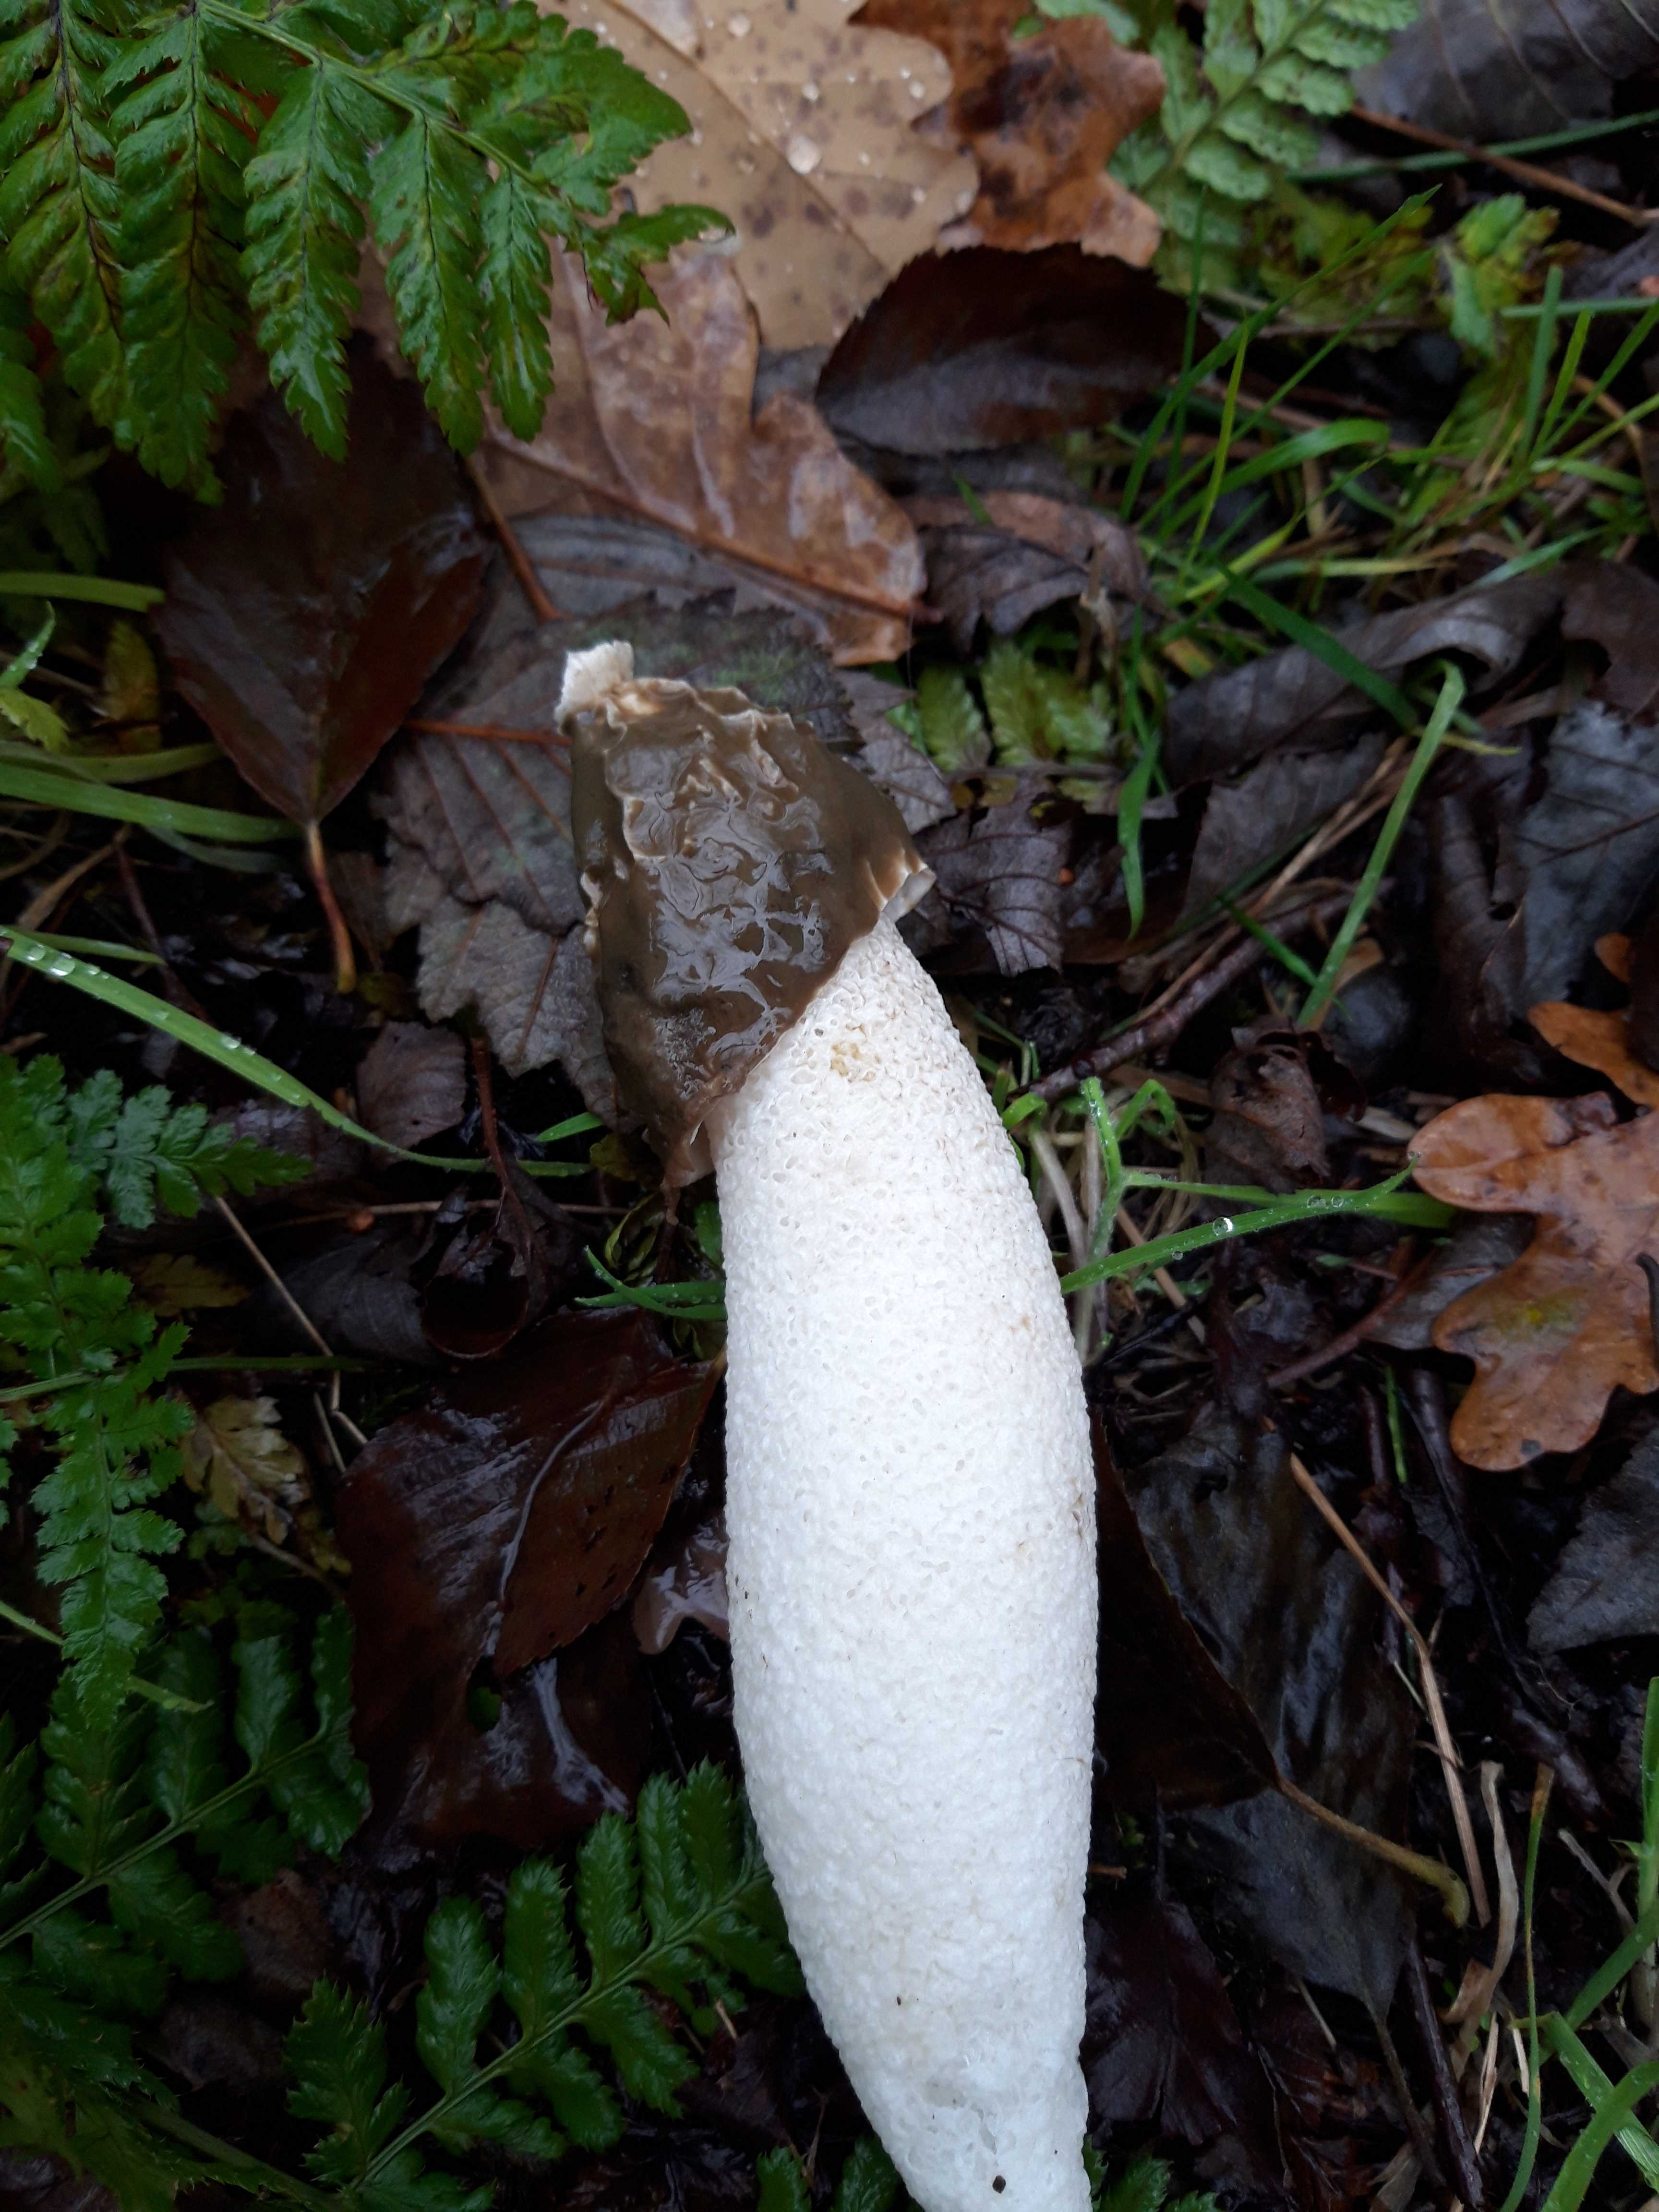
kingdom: Fungi
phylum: Basidiomycota
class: Agaricomycetes
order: Phallales
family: Phallaceae
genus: Phallus
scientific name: Phallus impudicus
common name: almindelig stinksvamp
